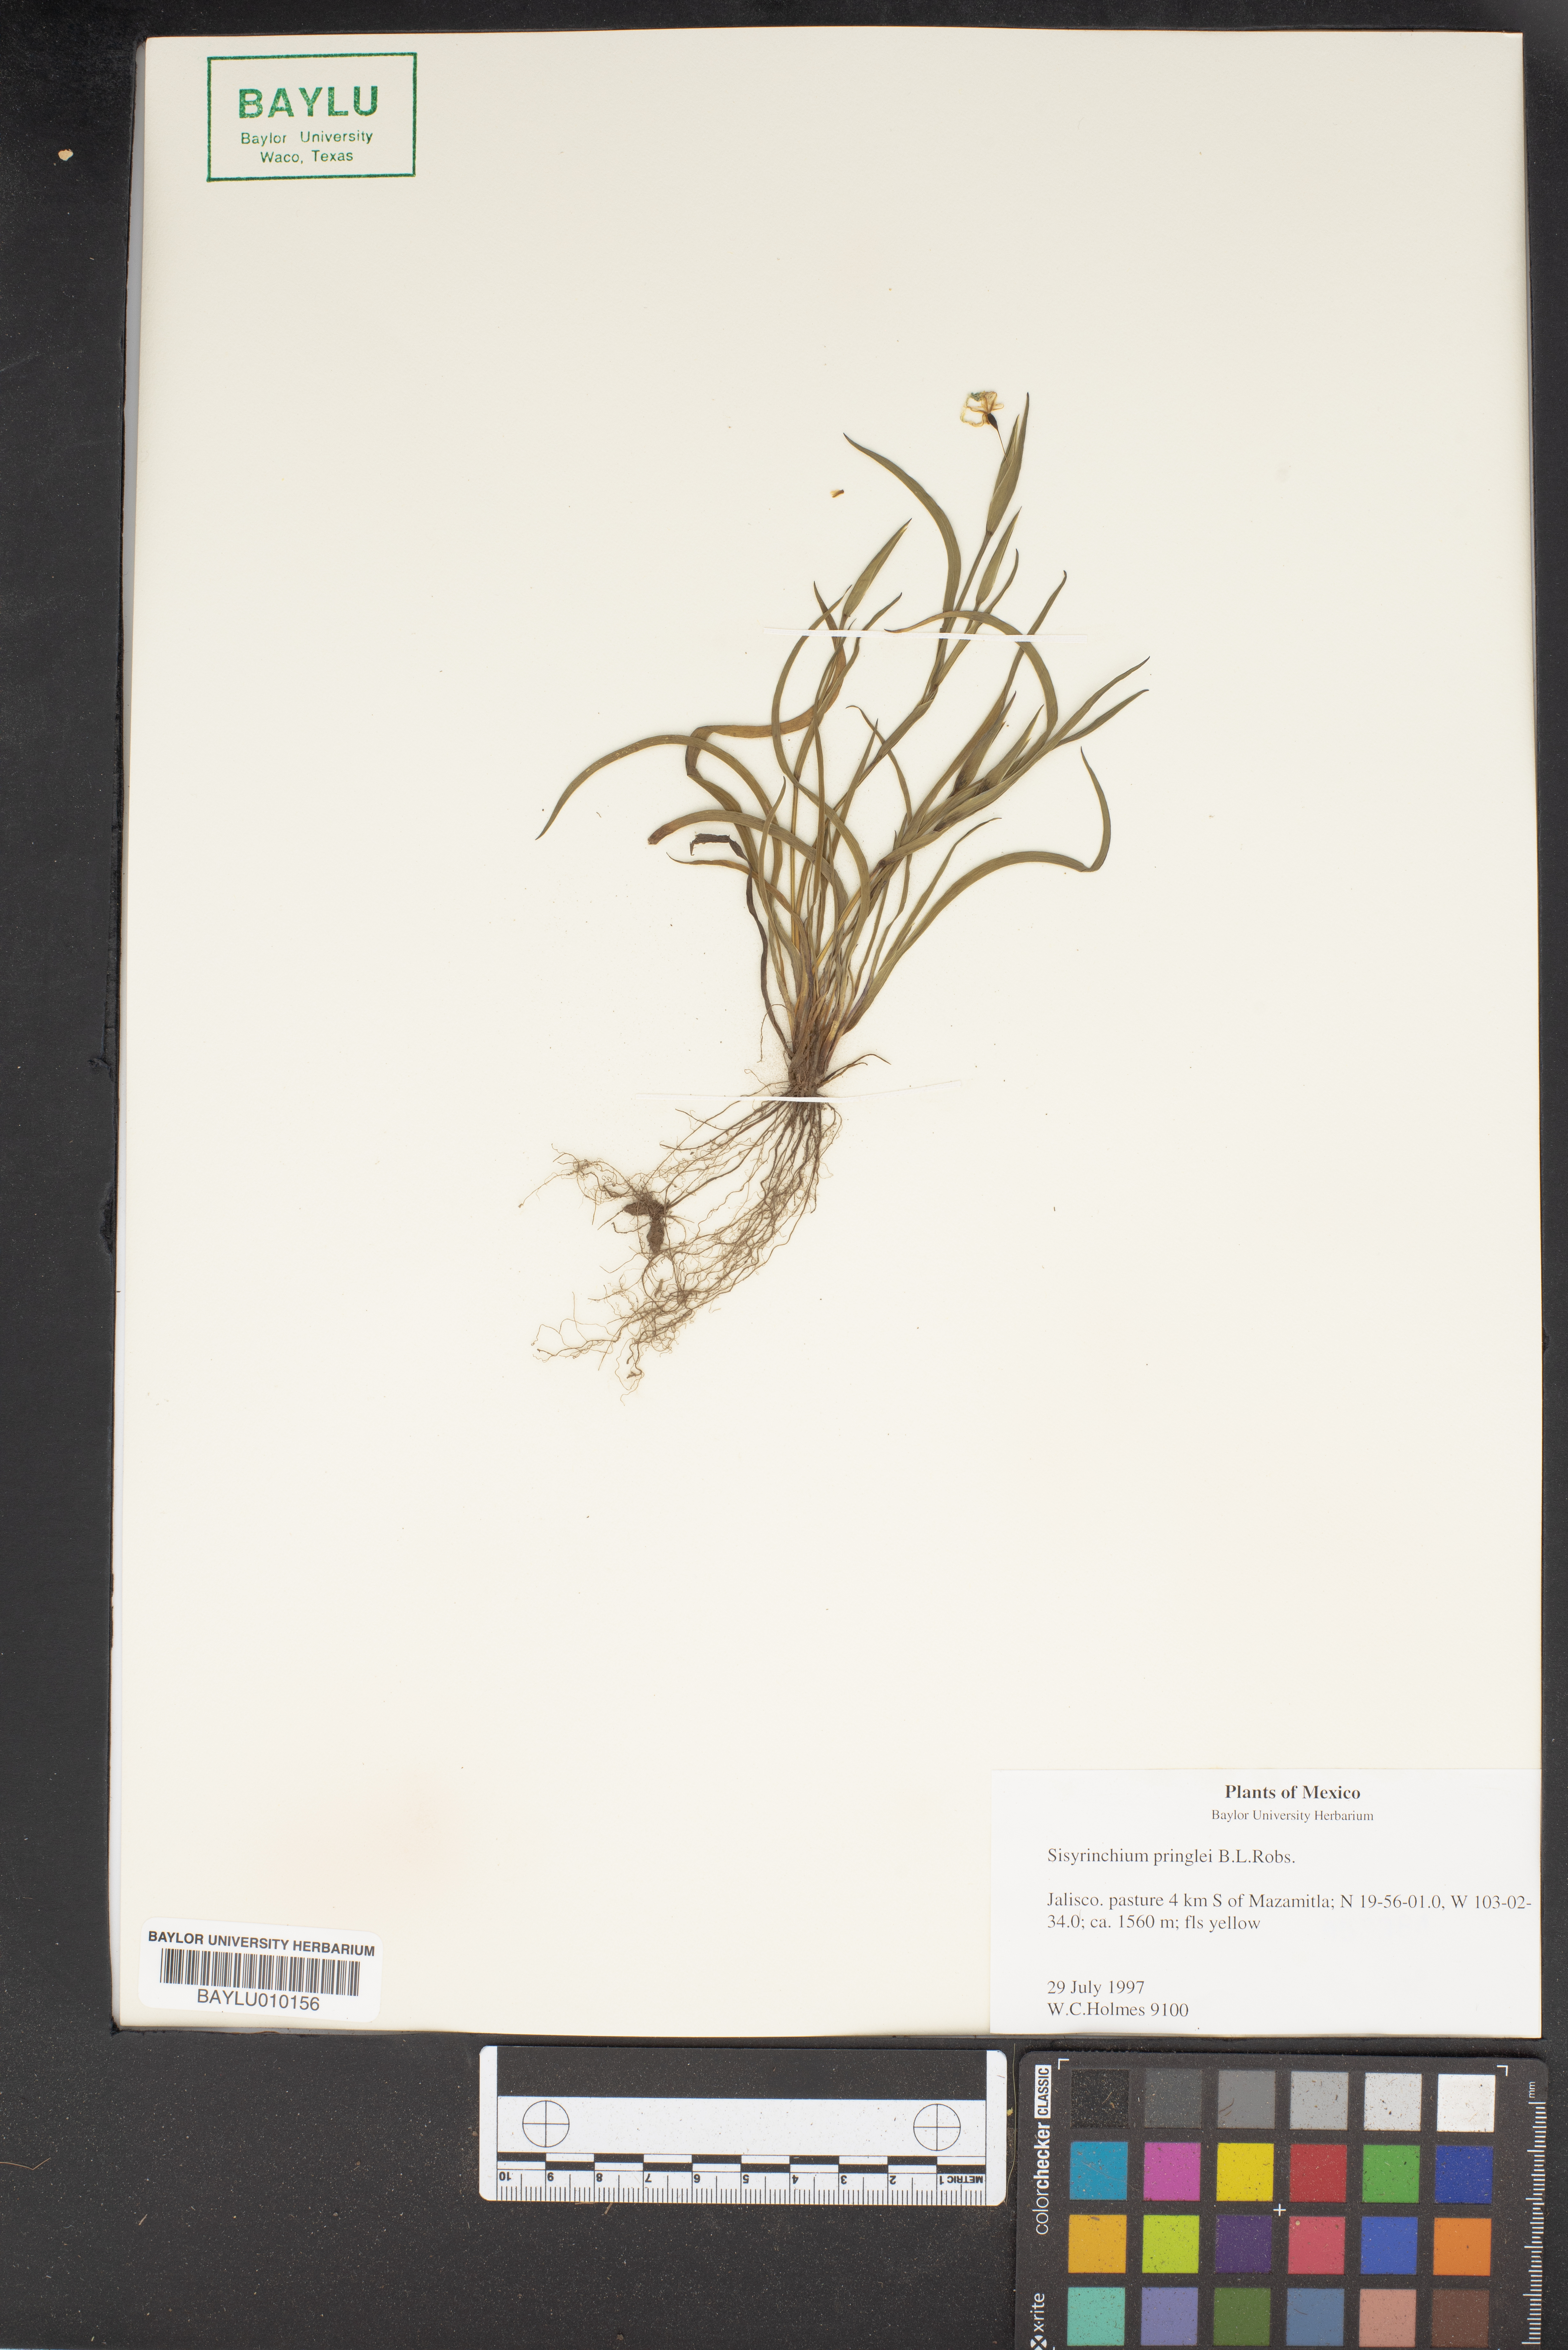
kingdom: Plantae
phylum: Tracheophyta
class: Liliopsida
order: Asparagales
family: Iridaceae
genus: Sisyrinchium
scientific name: Sisyrinchium pringlei
